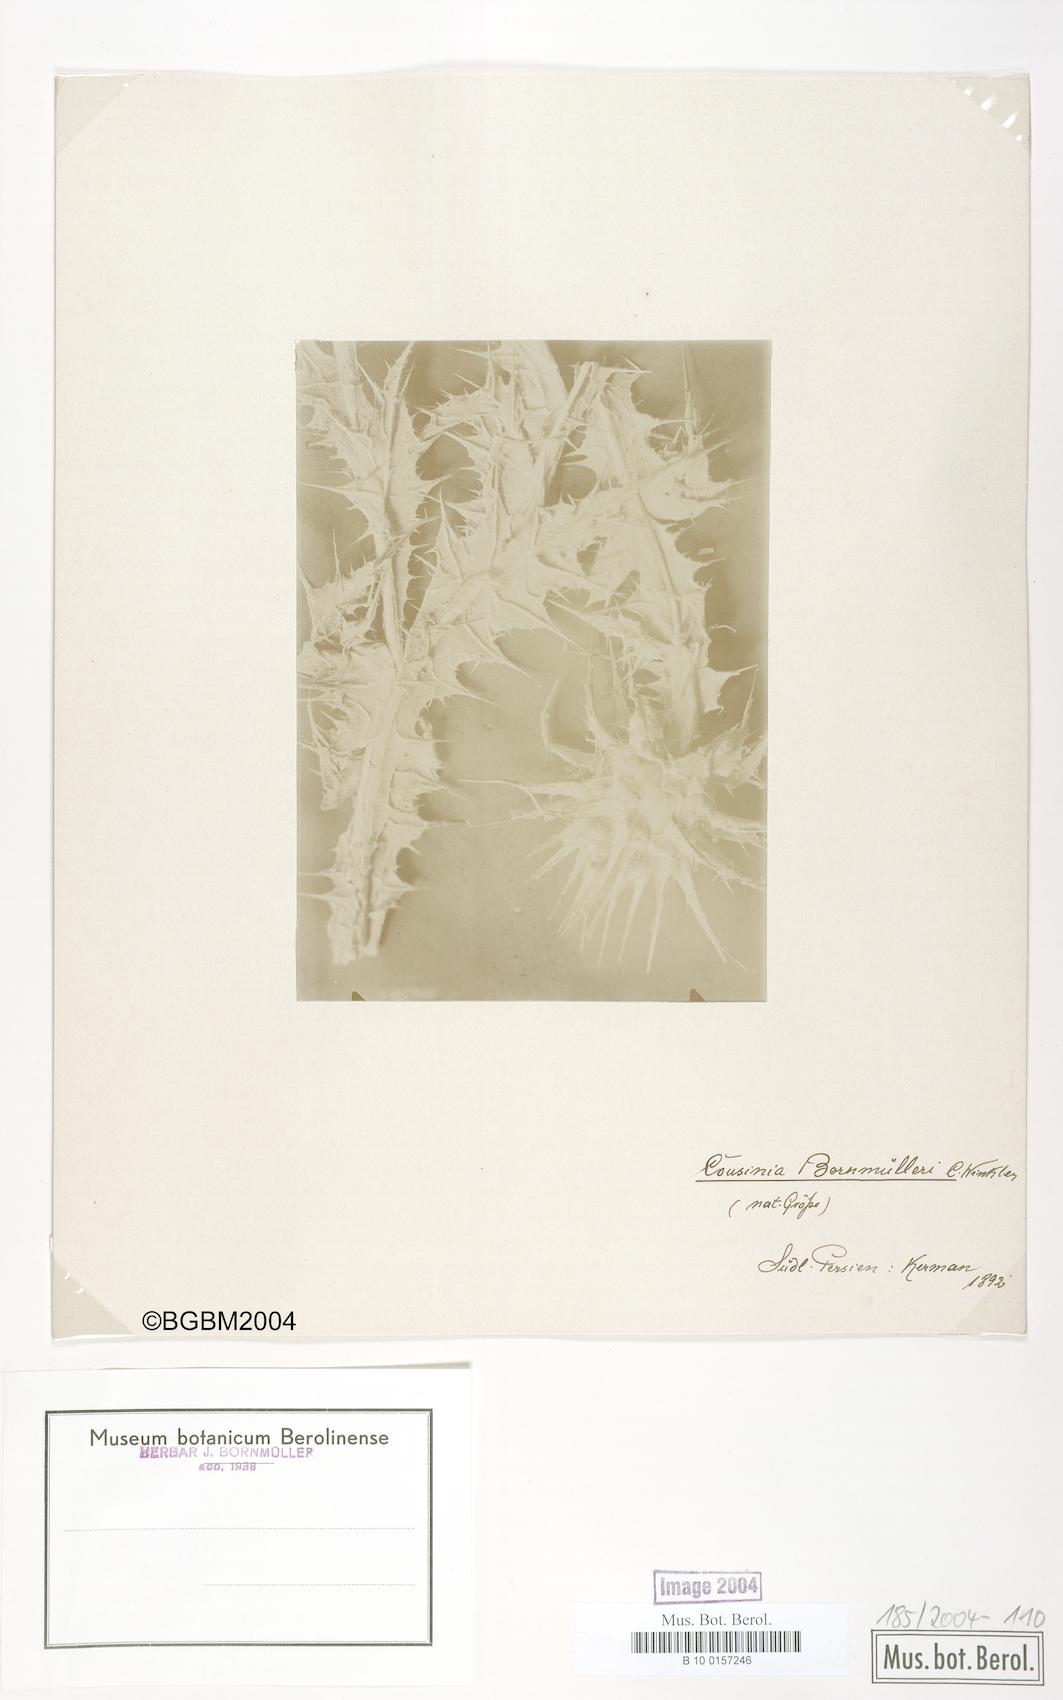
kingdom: Plantae
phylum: Tracheophyta
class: Magnoliopsida
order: Asterales
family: Asteraceae
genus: Cousinia
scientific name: Cousinia onopordioides
